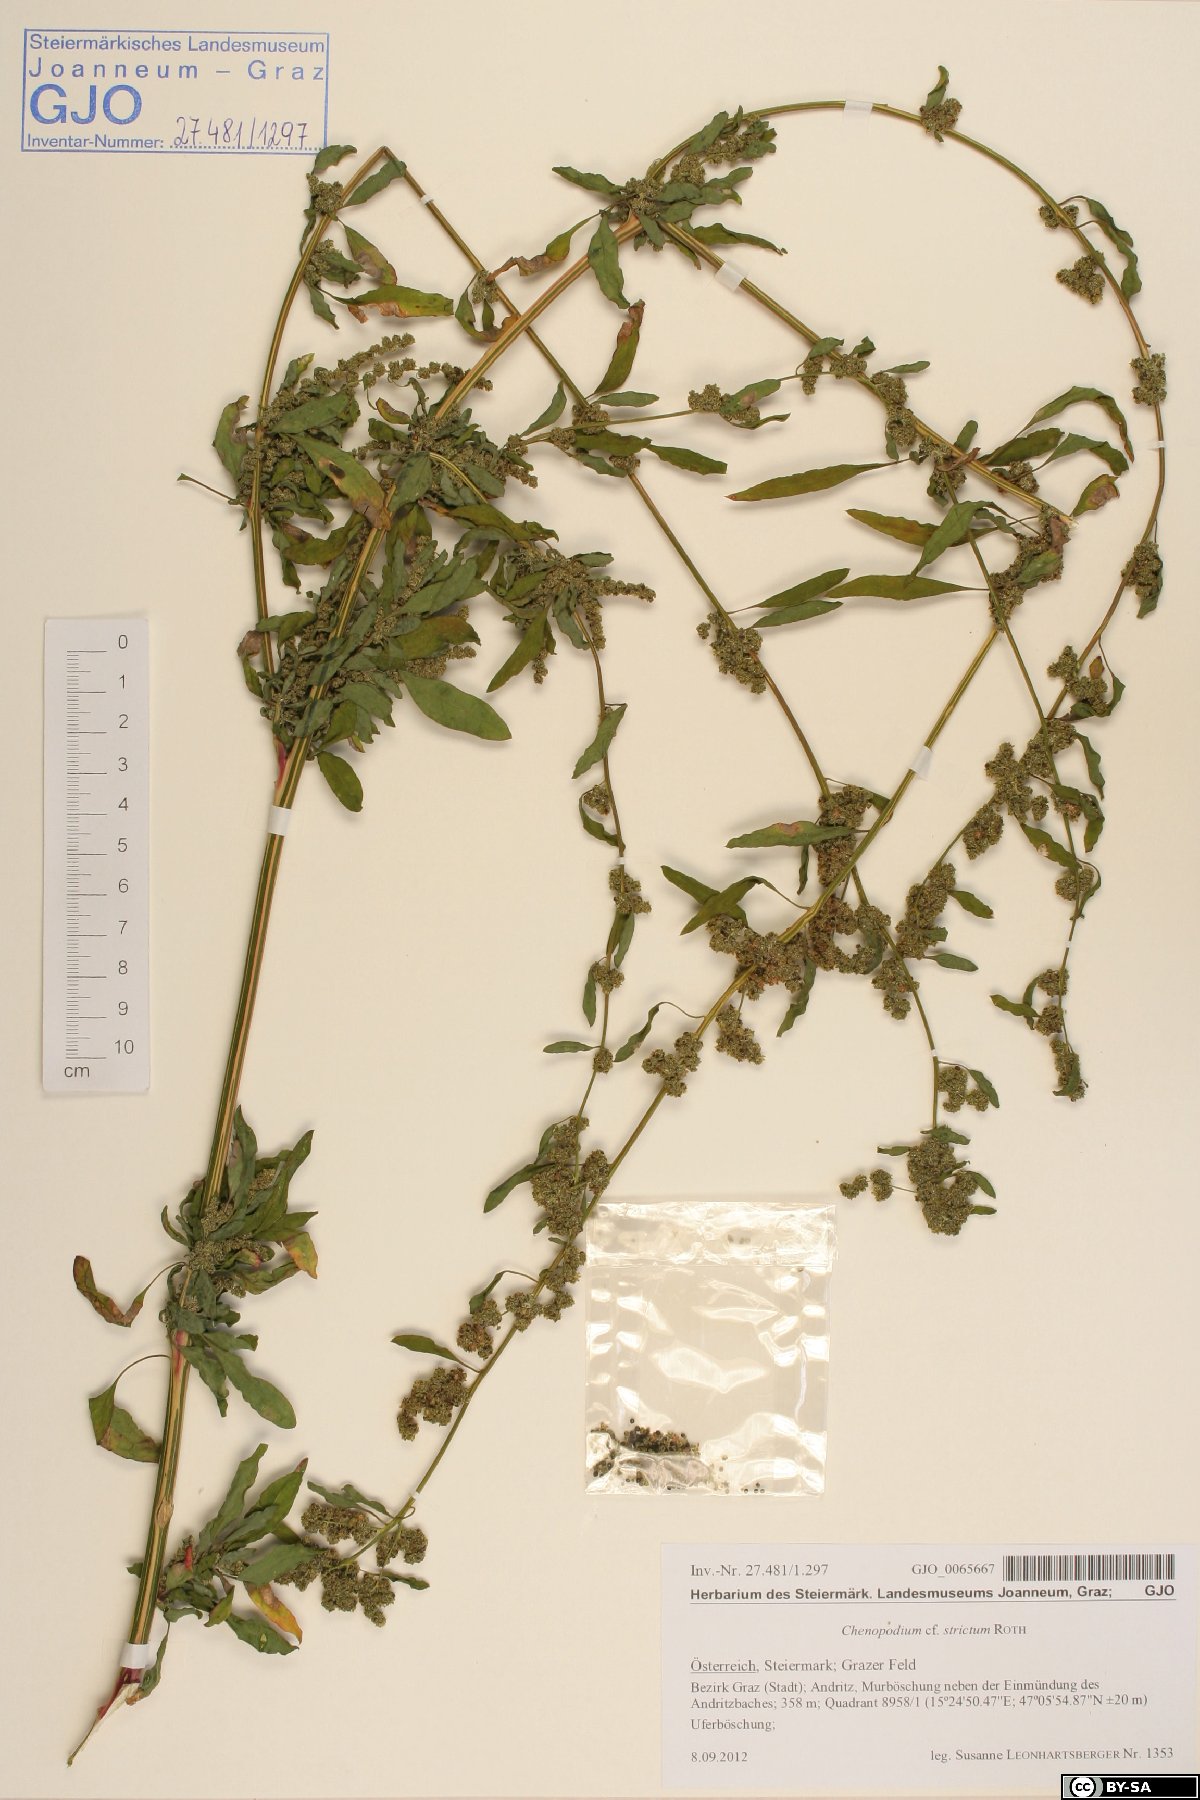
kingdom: Plantae
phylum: Tracheophyta
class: Magnoliopsida
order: Caryophyllales
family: Amaranthaceae
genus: Chenopodium
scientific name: Chenopodium album
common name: Fat-hen
